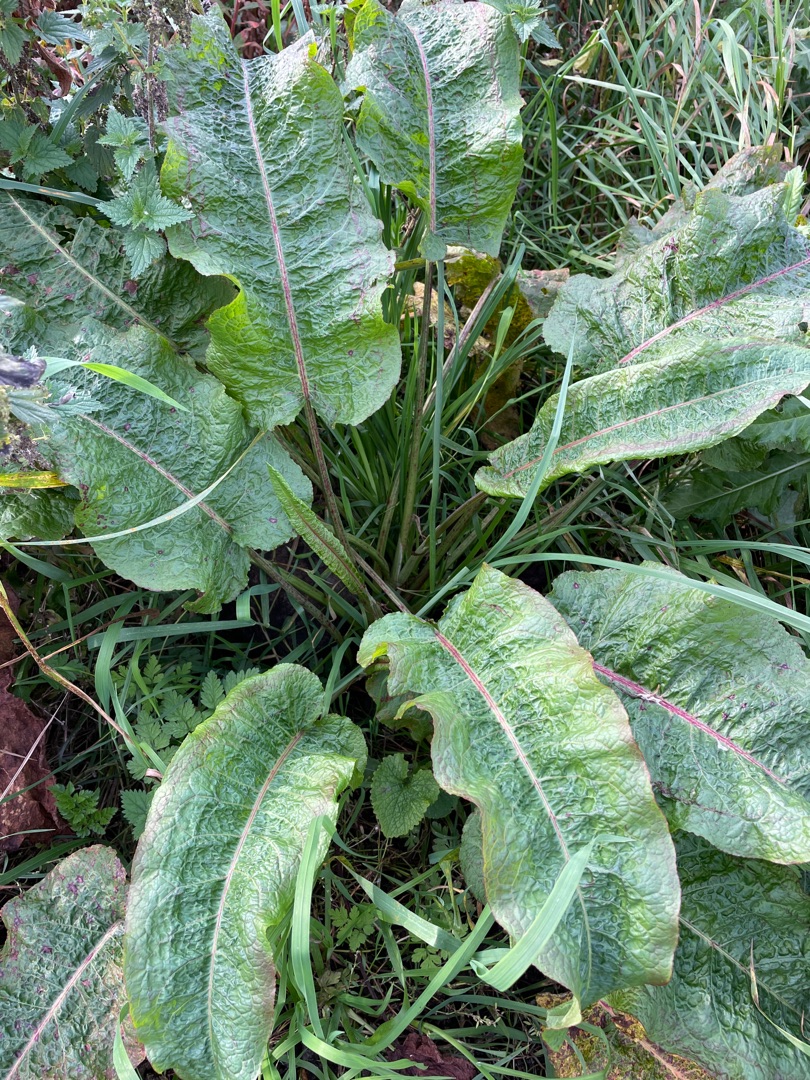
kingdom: Plantae
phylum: Tracheophyta
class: Magnoliopsida
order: Caryophyllales
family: Polygonaceae
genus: Rumex
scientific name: Rumex obtusifolius
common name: Butbladet skræppe
